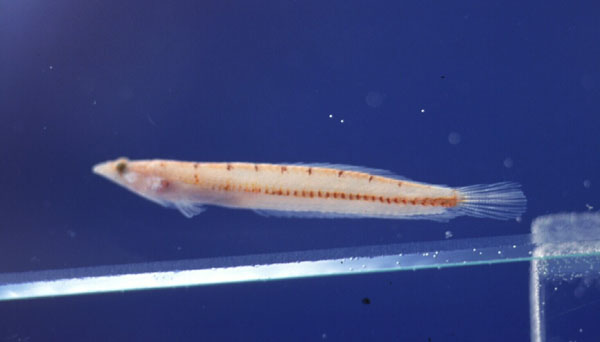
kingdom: Animalia
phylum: Chordata
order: Perciformes
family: Creediidae
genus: Limnichthys
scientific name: Limnichthys nitidus
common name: Donaldson's sandburrower
